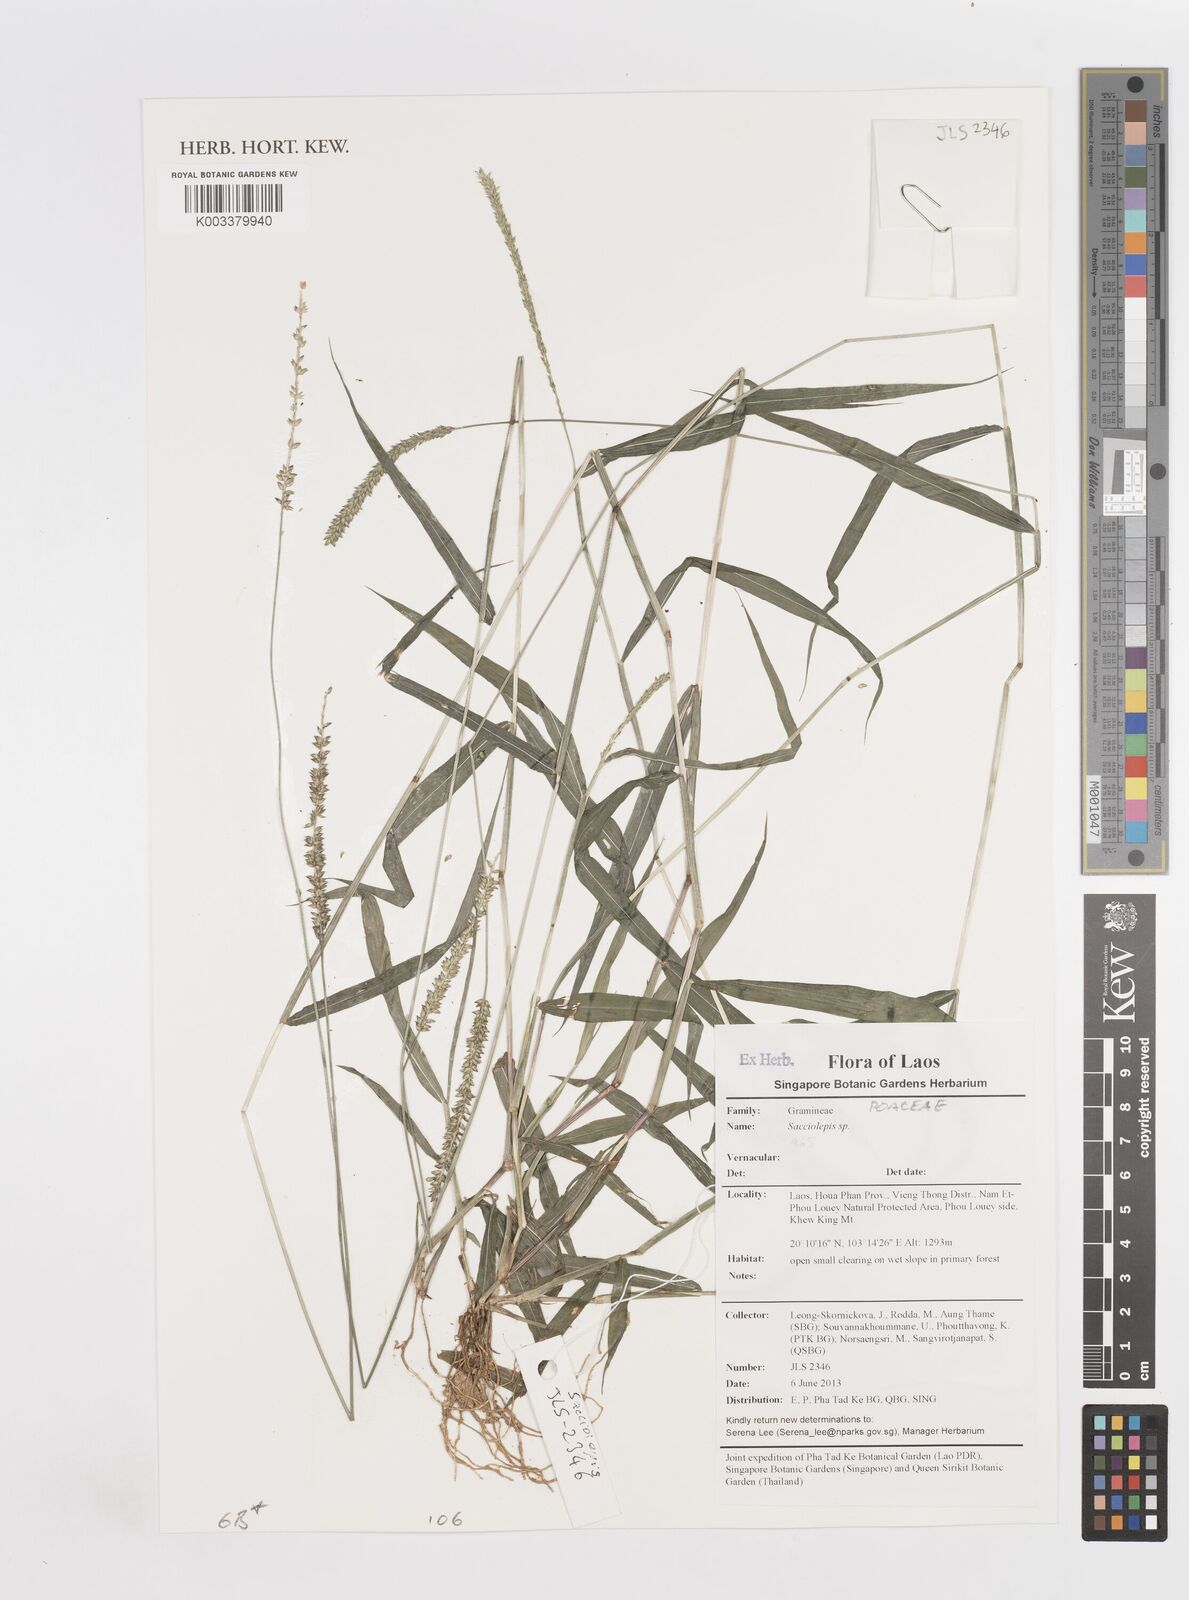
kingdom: Plantae
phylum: Tracheophyta
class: Liliopsida
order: Poales
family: Poaceae
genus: Sacciolepis
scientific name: Sacciolepis
